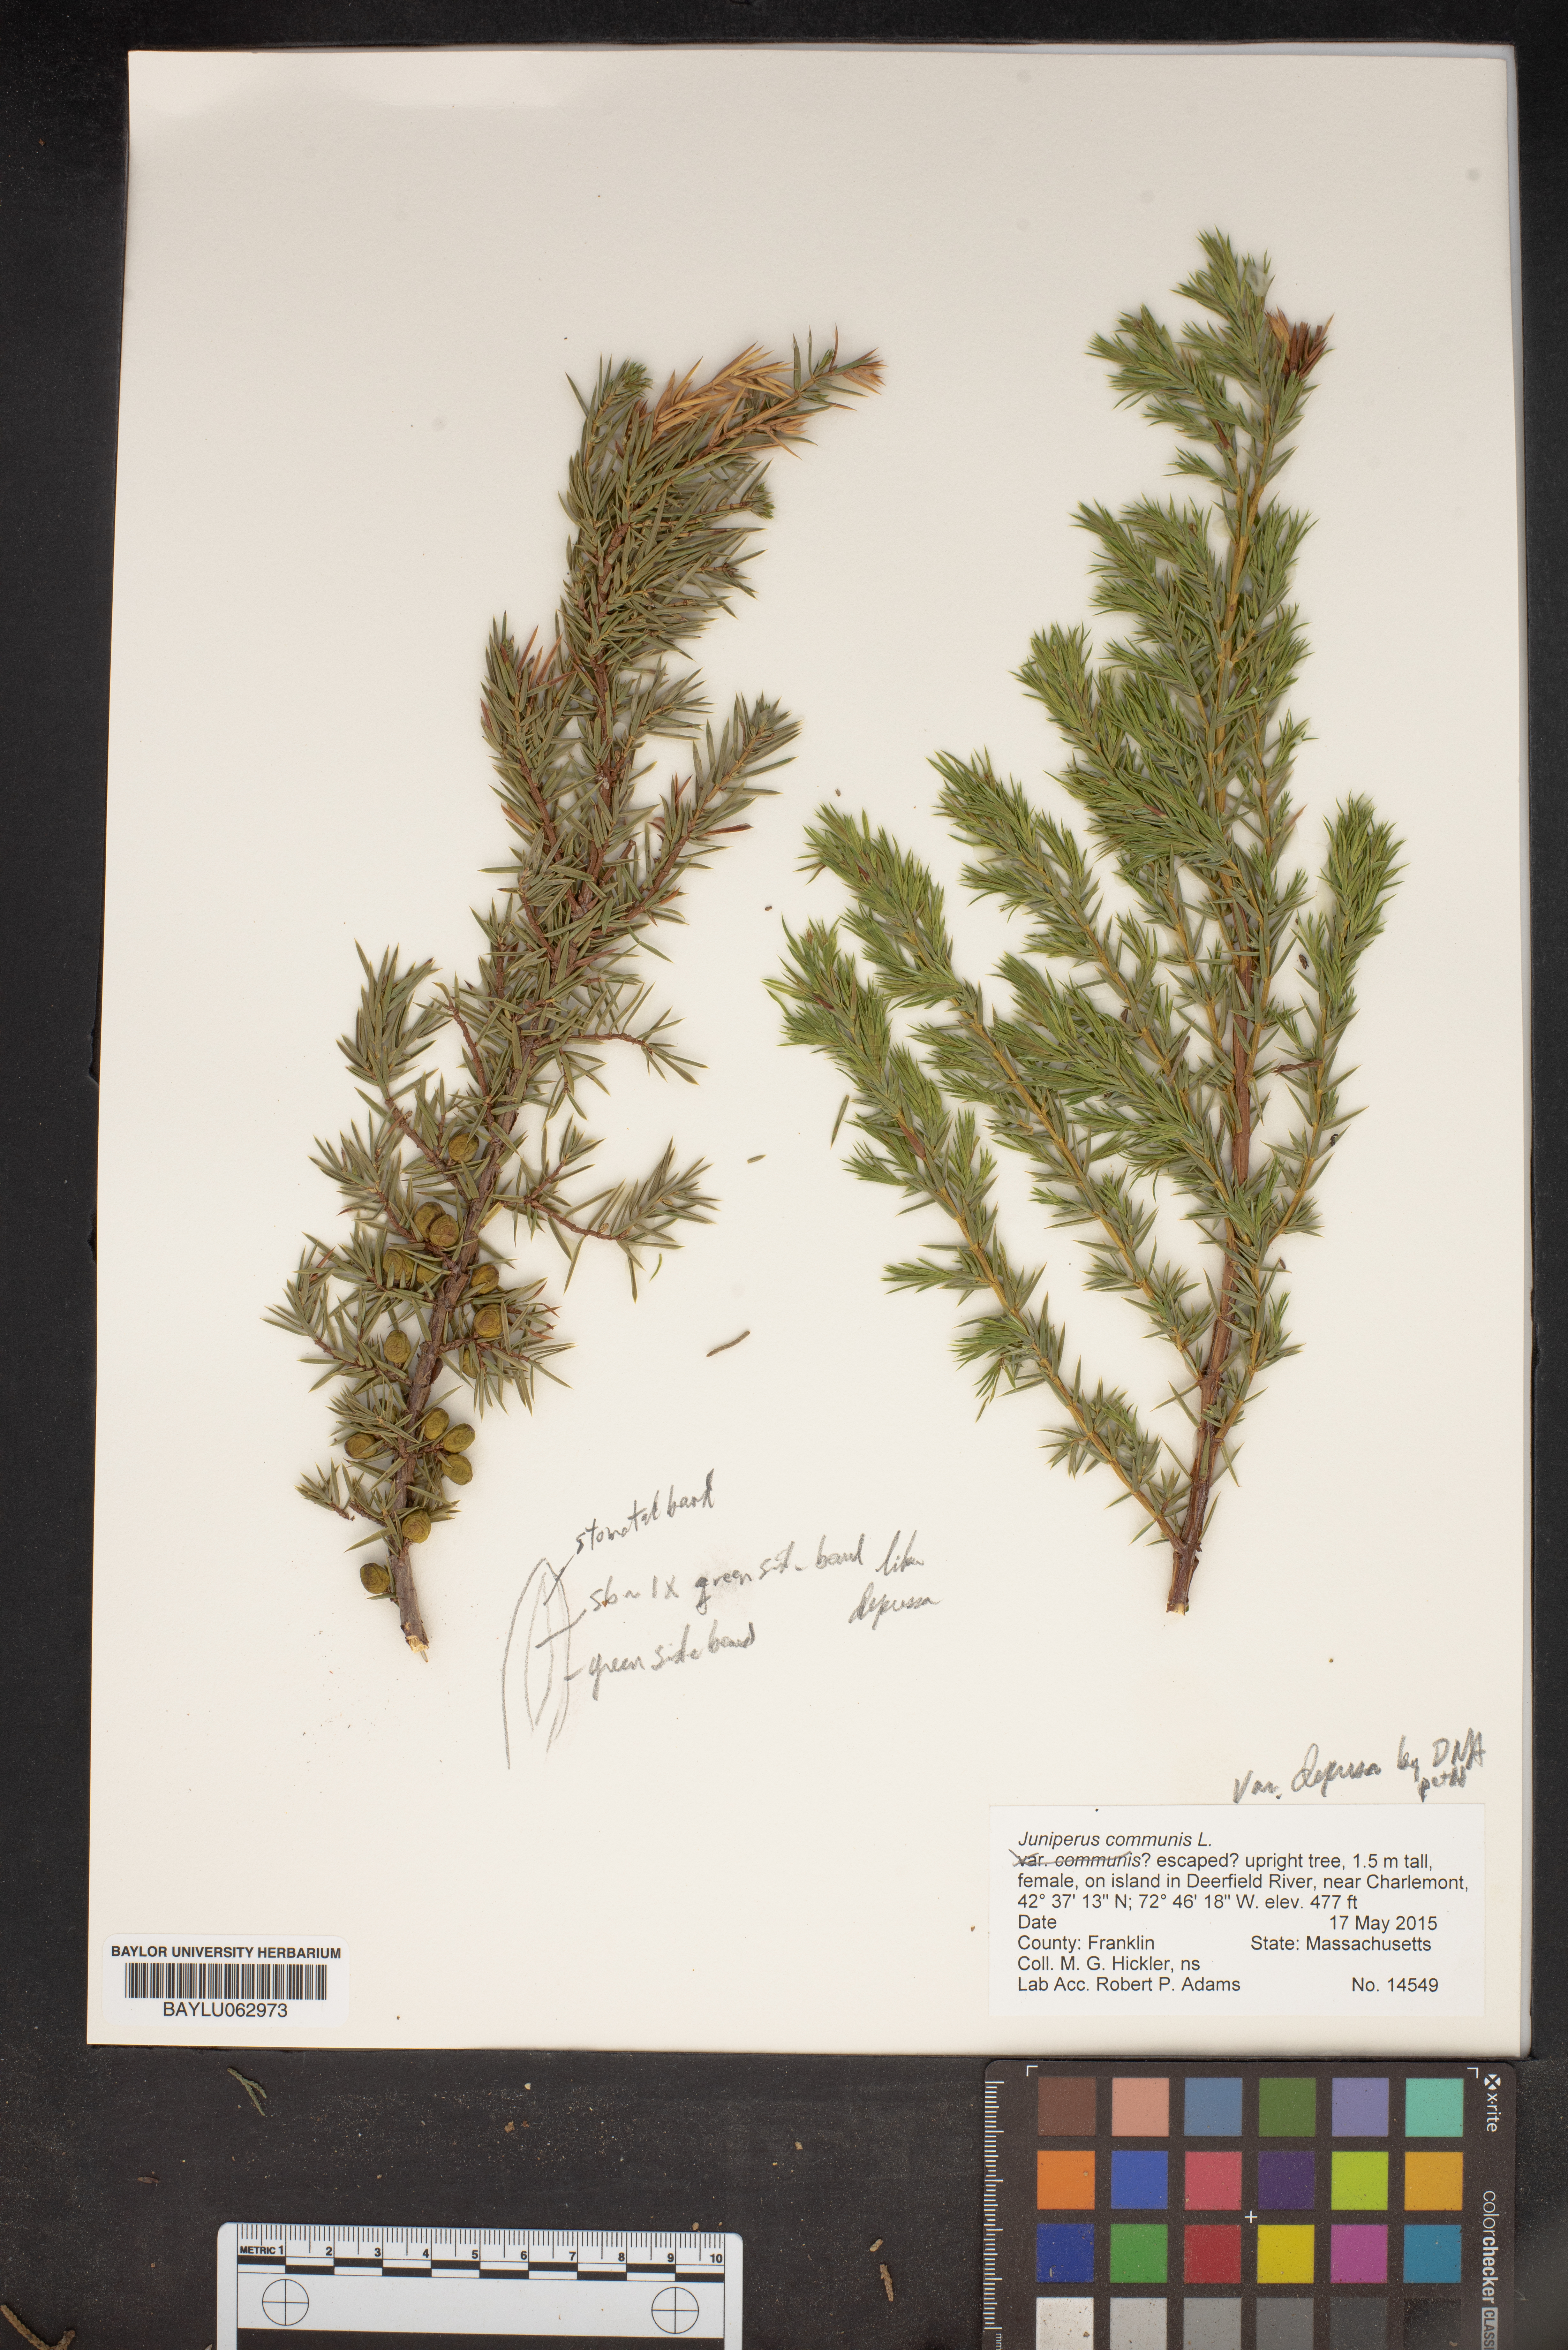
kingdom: Plantae
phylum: Tracheophyta
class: Pinopsida
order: Pinales
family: Cupressaceae
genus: Juniperus
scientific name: Juniperus communis
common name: Common juniper
